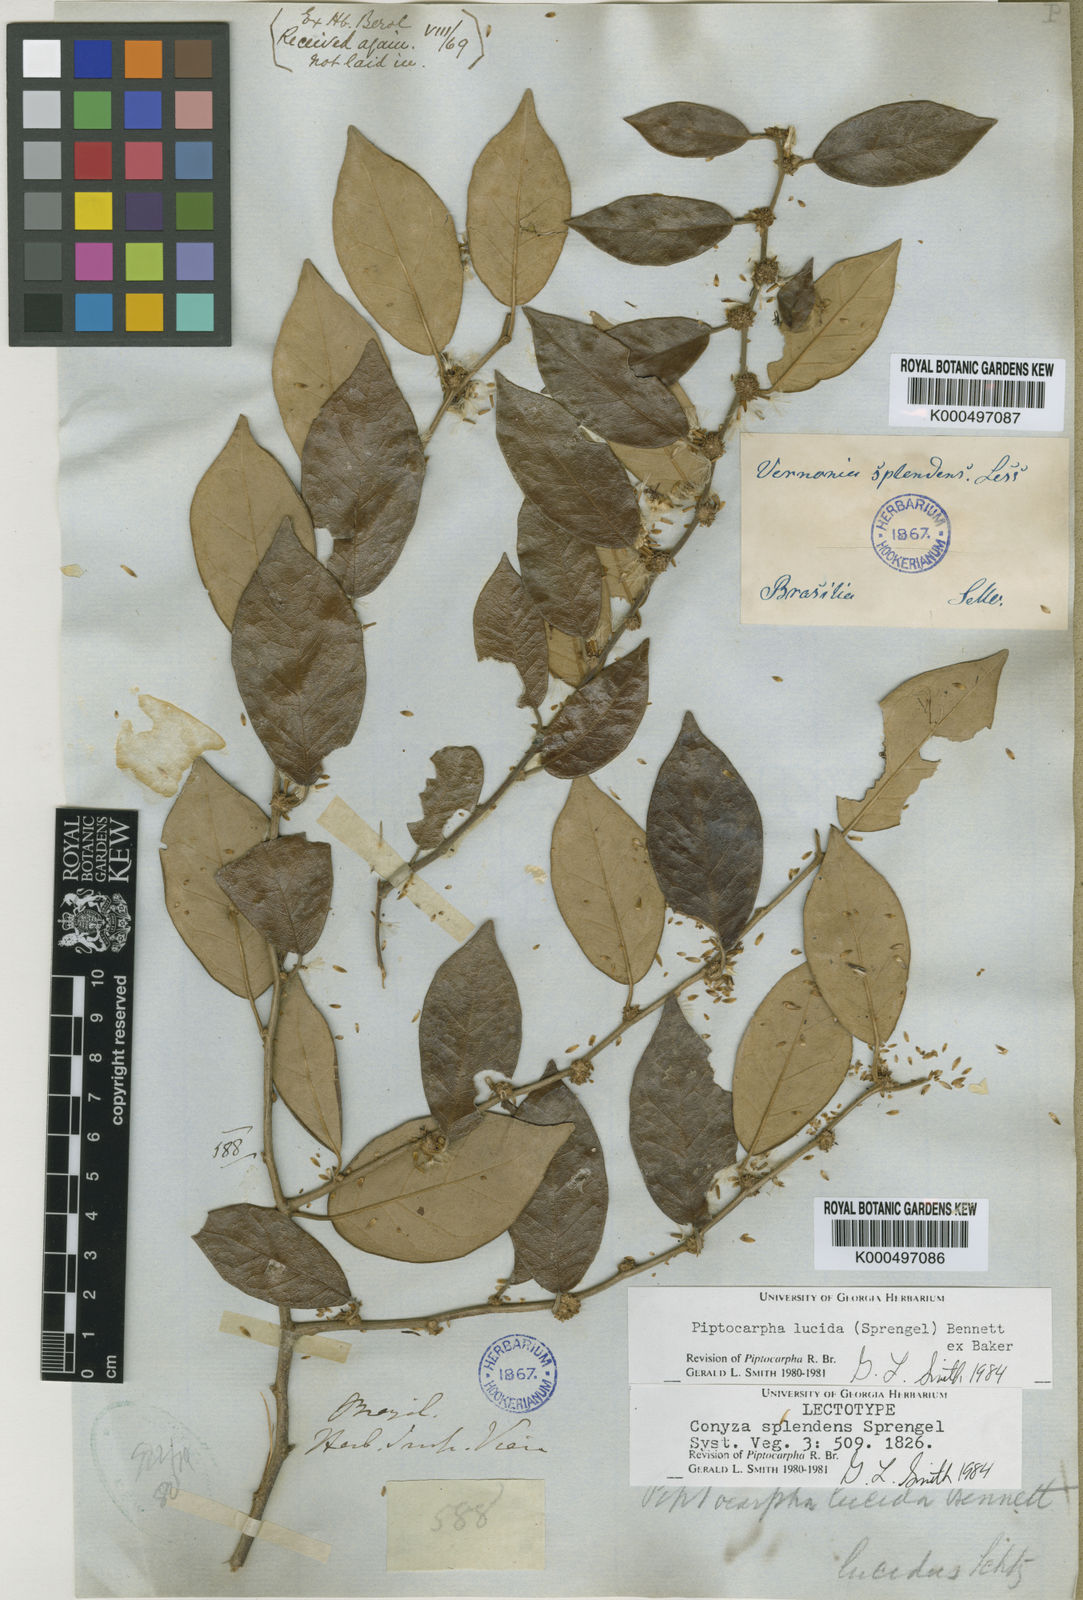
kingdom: Plantae
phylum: Tracheophyta
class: Magnoliopsida
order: Asterales
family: Asteraceae
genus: Piptocarpha
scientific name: Piptocarpha lucida
